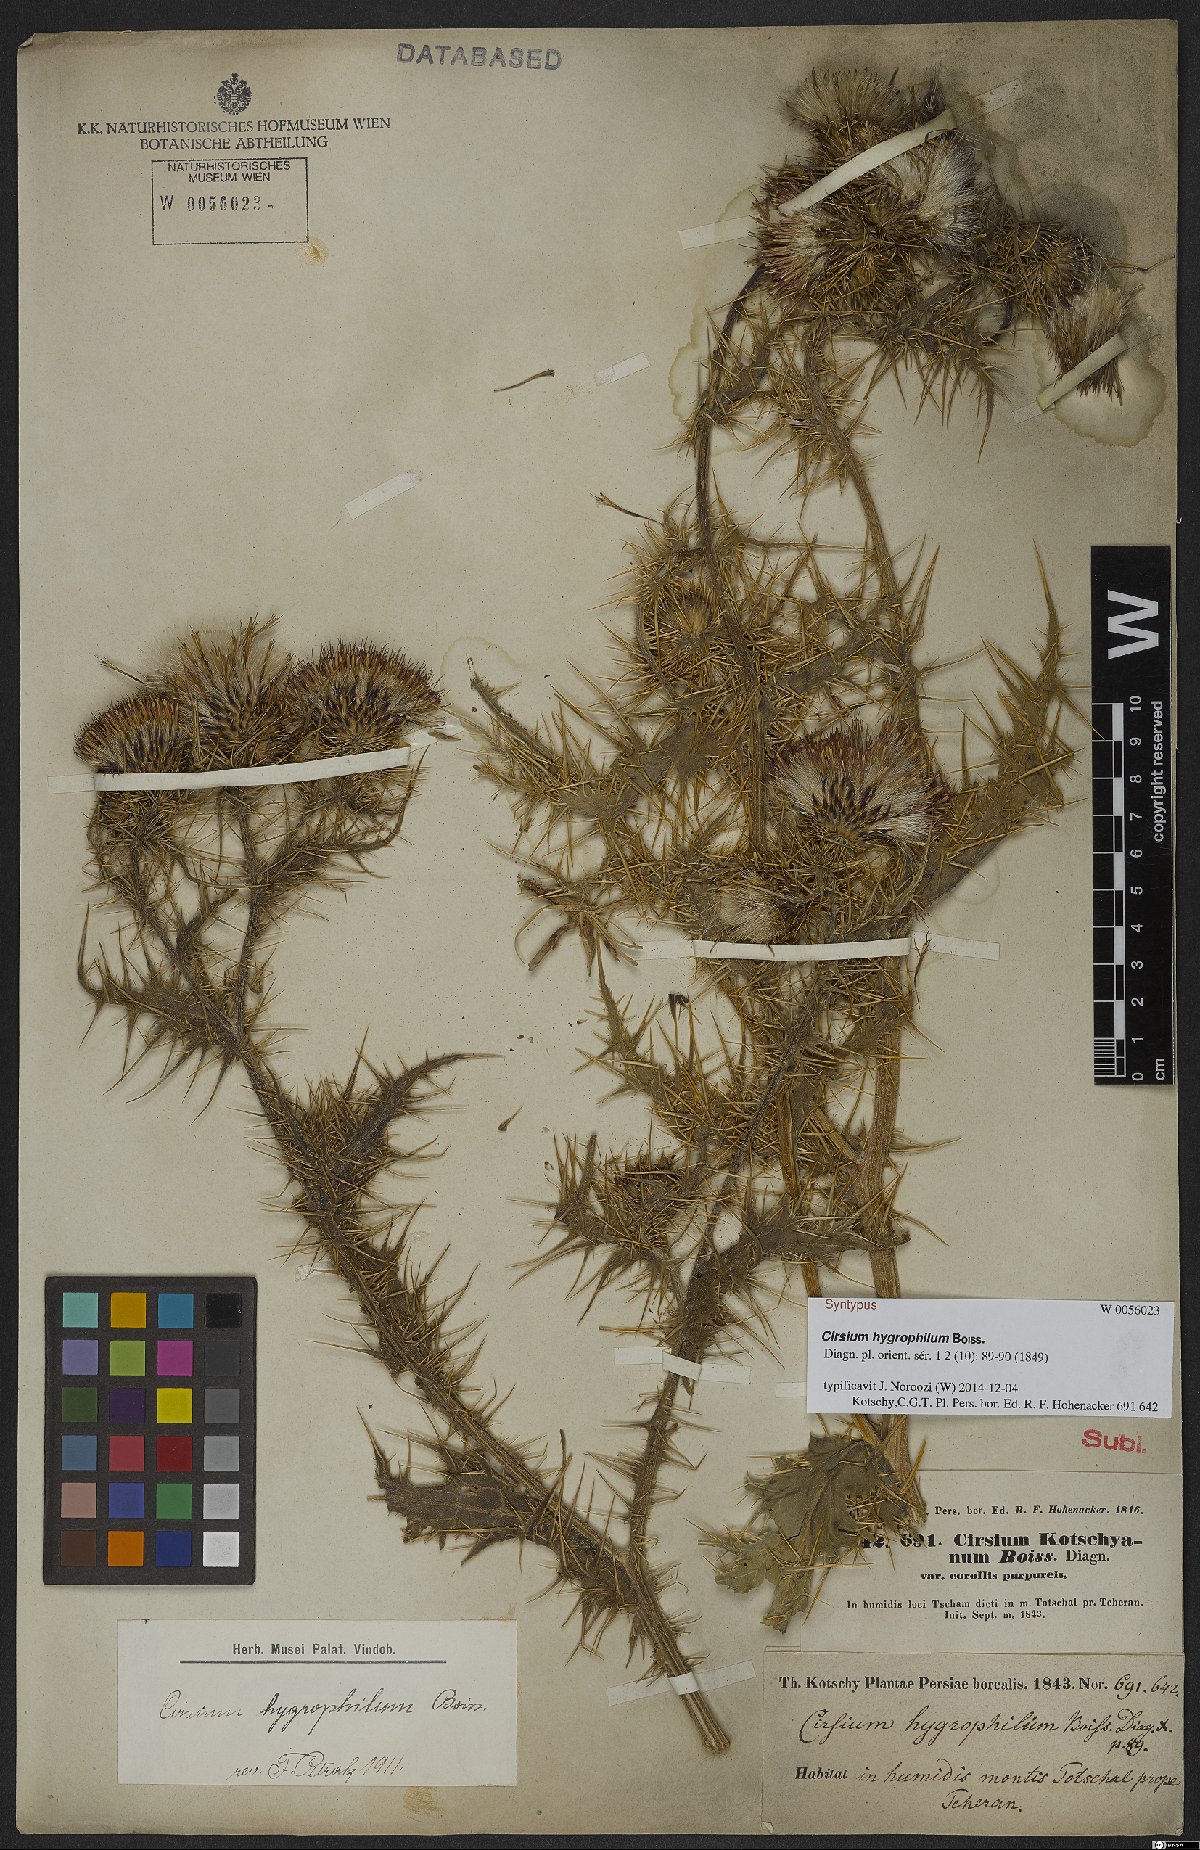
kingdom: Plantae
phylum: Tracheophyta
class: Magnoliopsida
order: Asterales
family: Asteraceae
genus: Cirsium
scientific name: Cirsium hygrophilum
